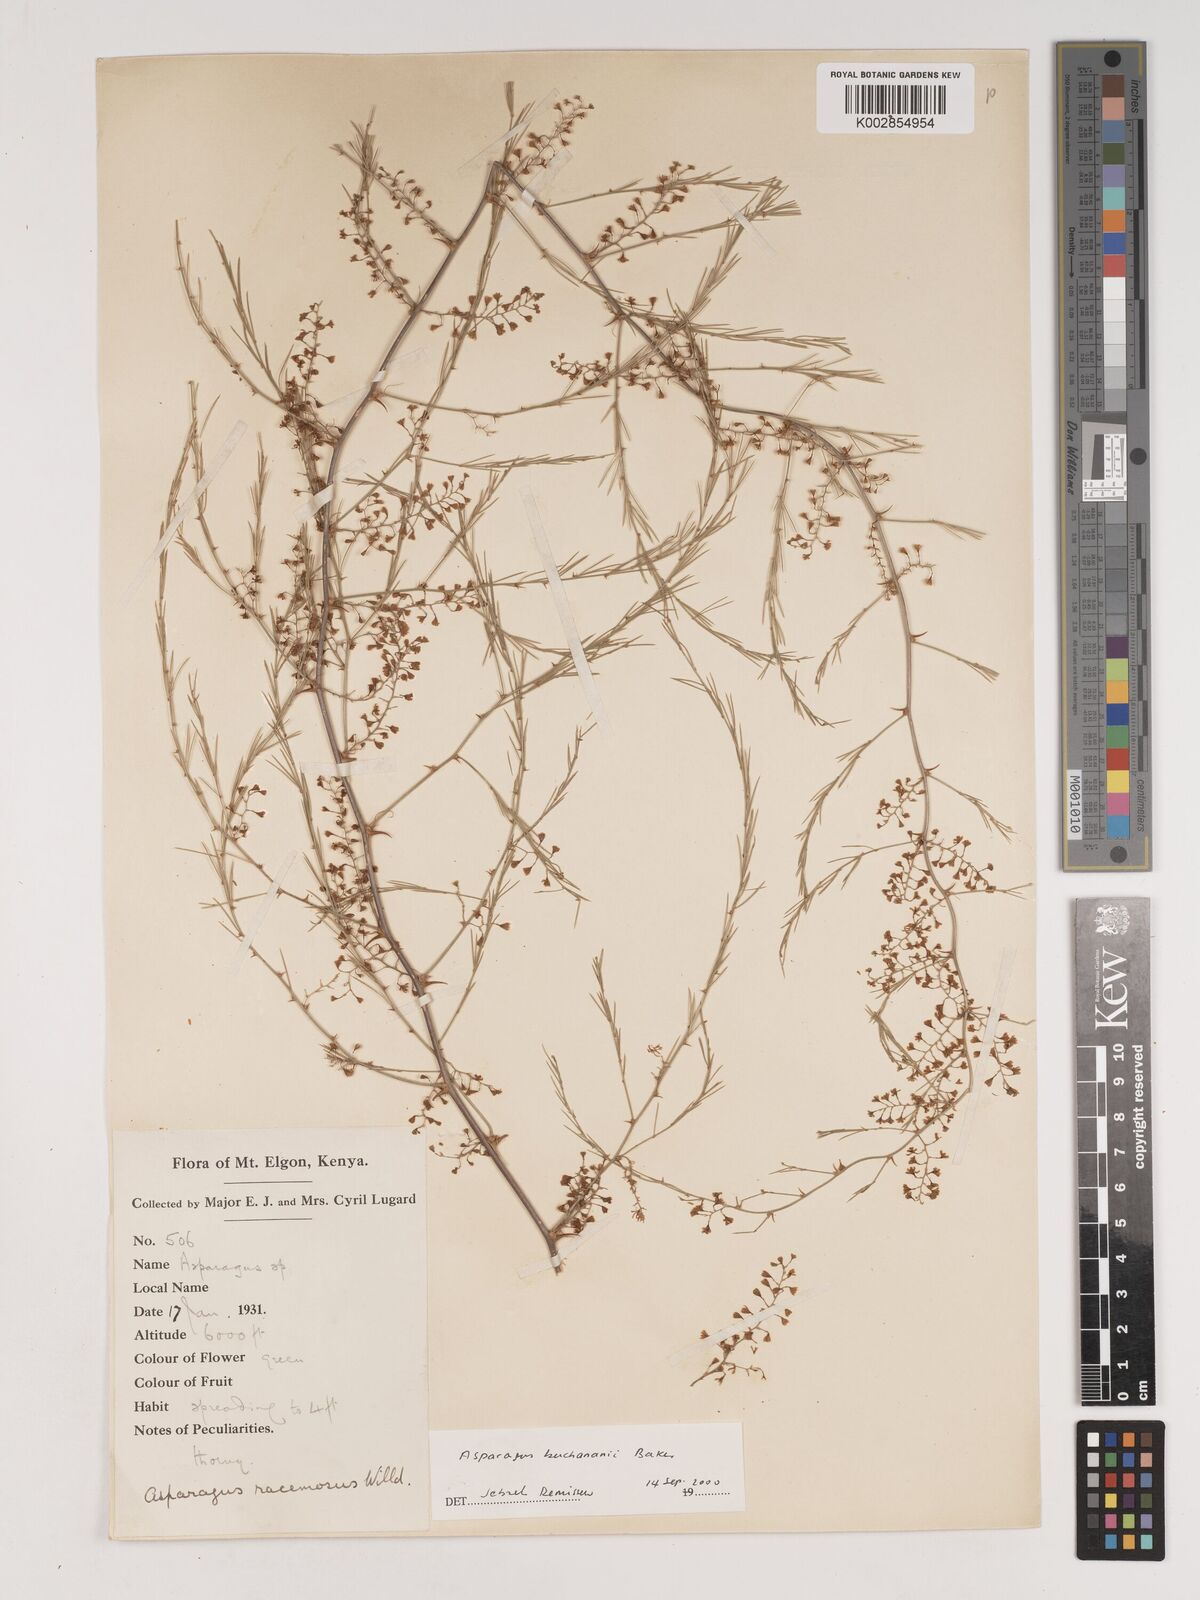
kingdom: Plantae
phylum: Tracheophyta
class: Liliopsida
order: Asparagales
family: Asparagaceae
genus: Asparagus
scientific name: Asparagus buchananii
